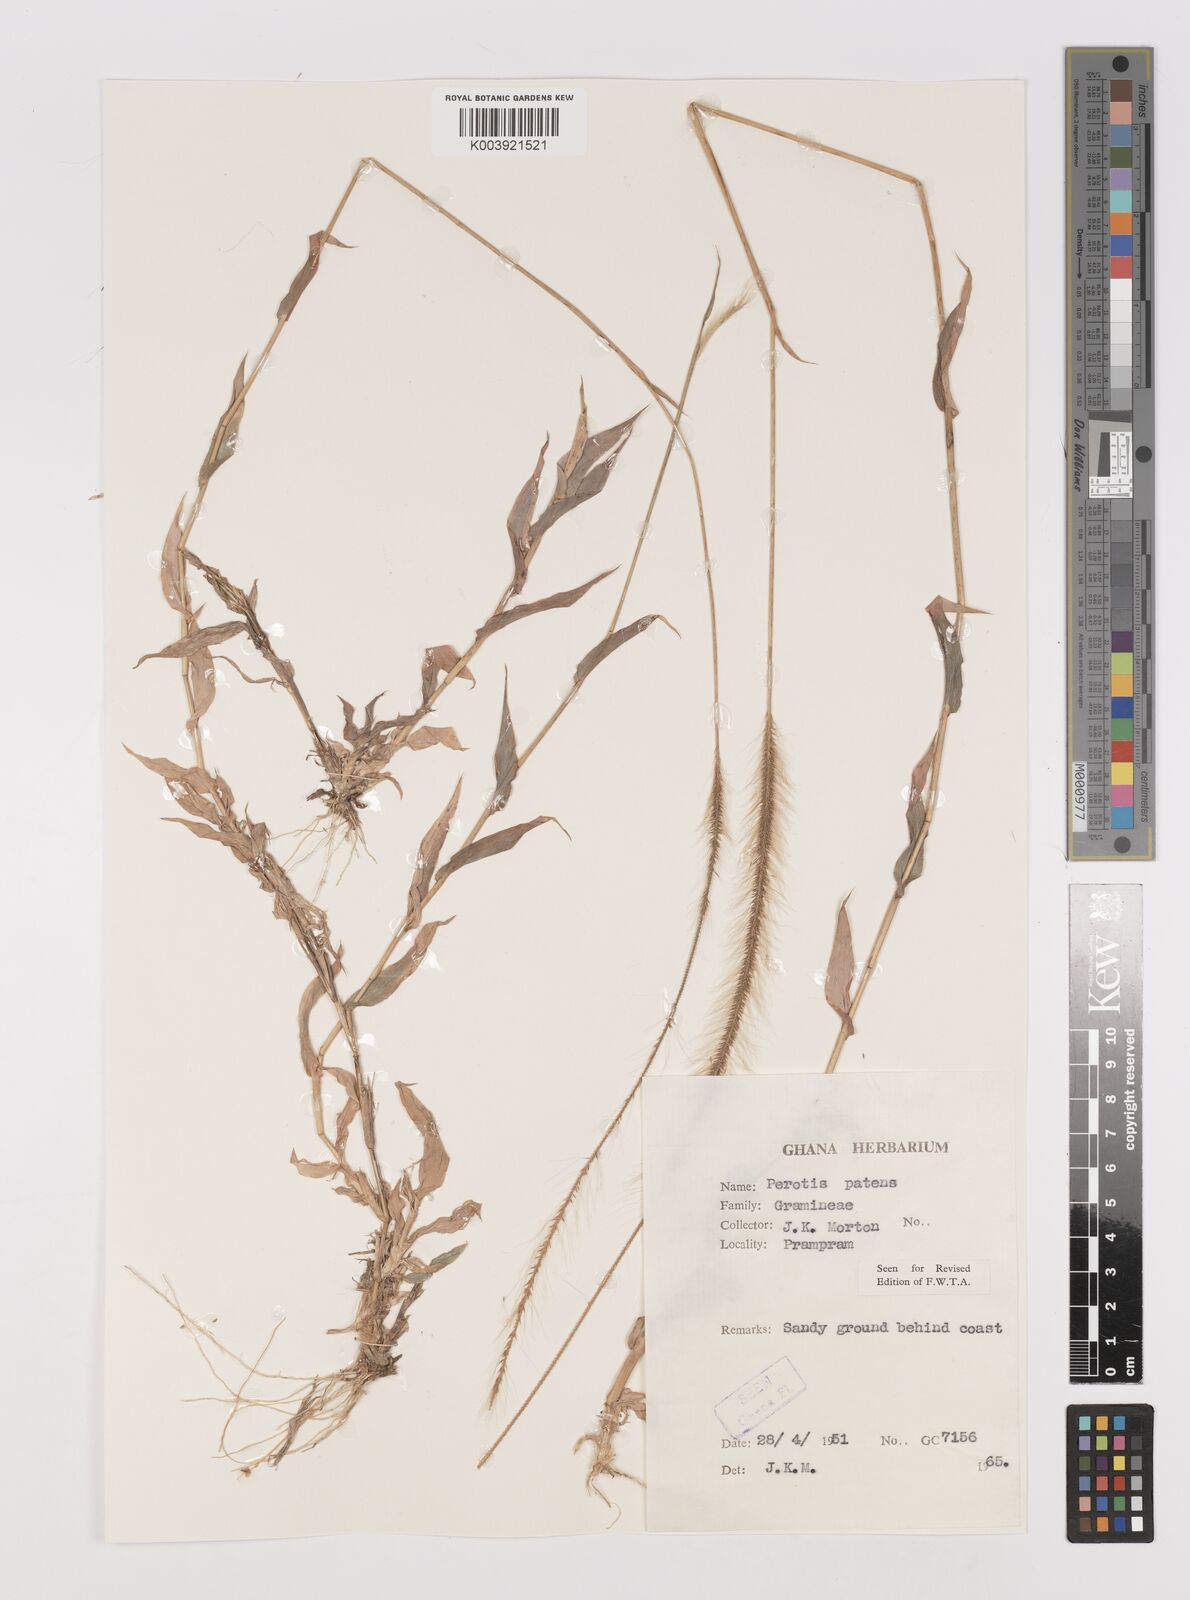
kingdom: Plantae
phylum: Tracheophyta
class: Liliopsida
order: Poales
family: Poaceae
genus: Perotis
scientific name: Perotis patens
